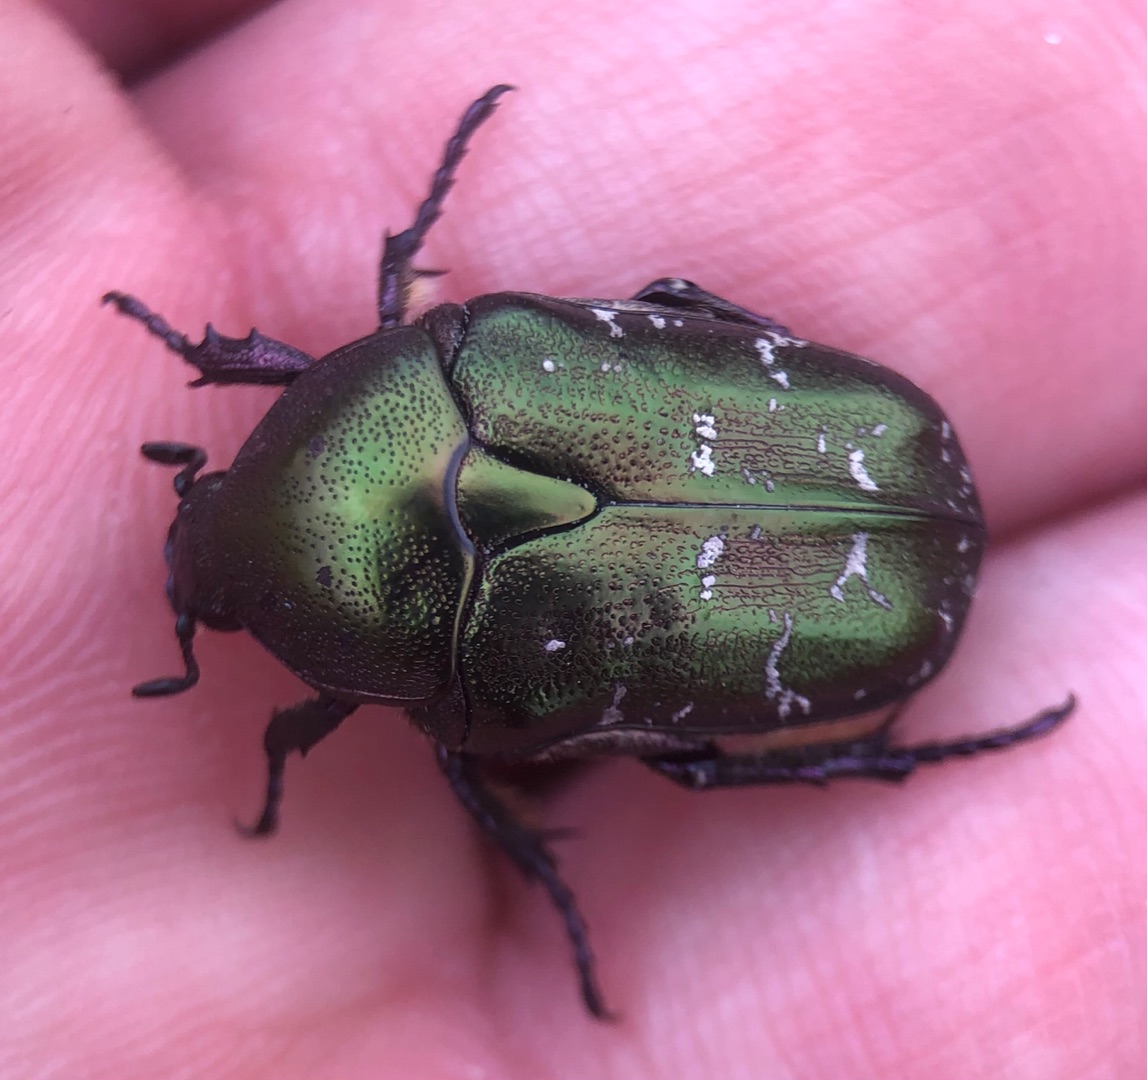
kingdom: Animalia
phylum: Arthropoda
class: Insecta
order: Coleoptera
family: Scarabaeidae
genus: Protaetia
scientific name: Protaetia cuprea
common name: Kobberguldbasse
